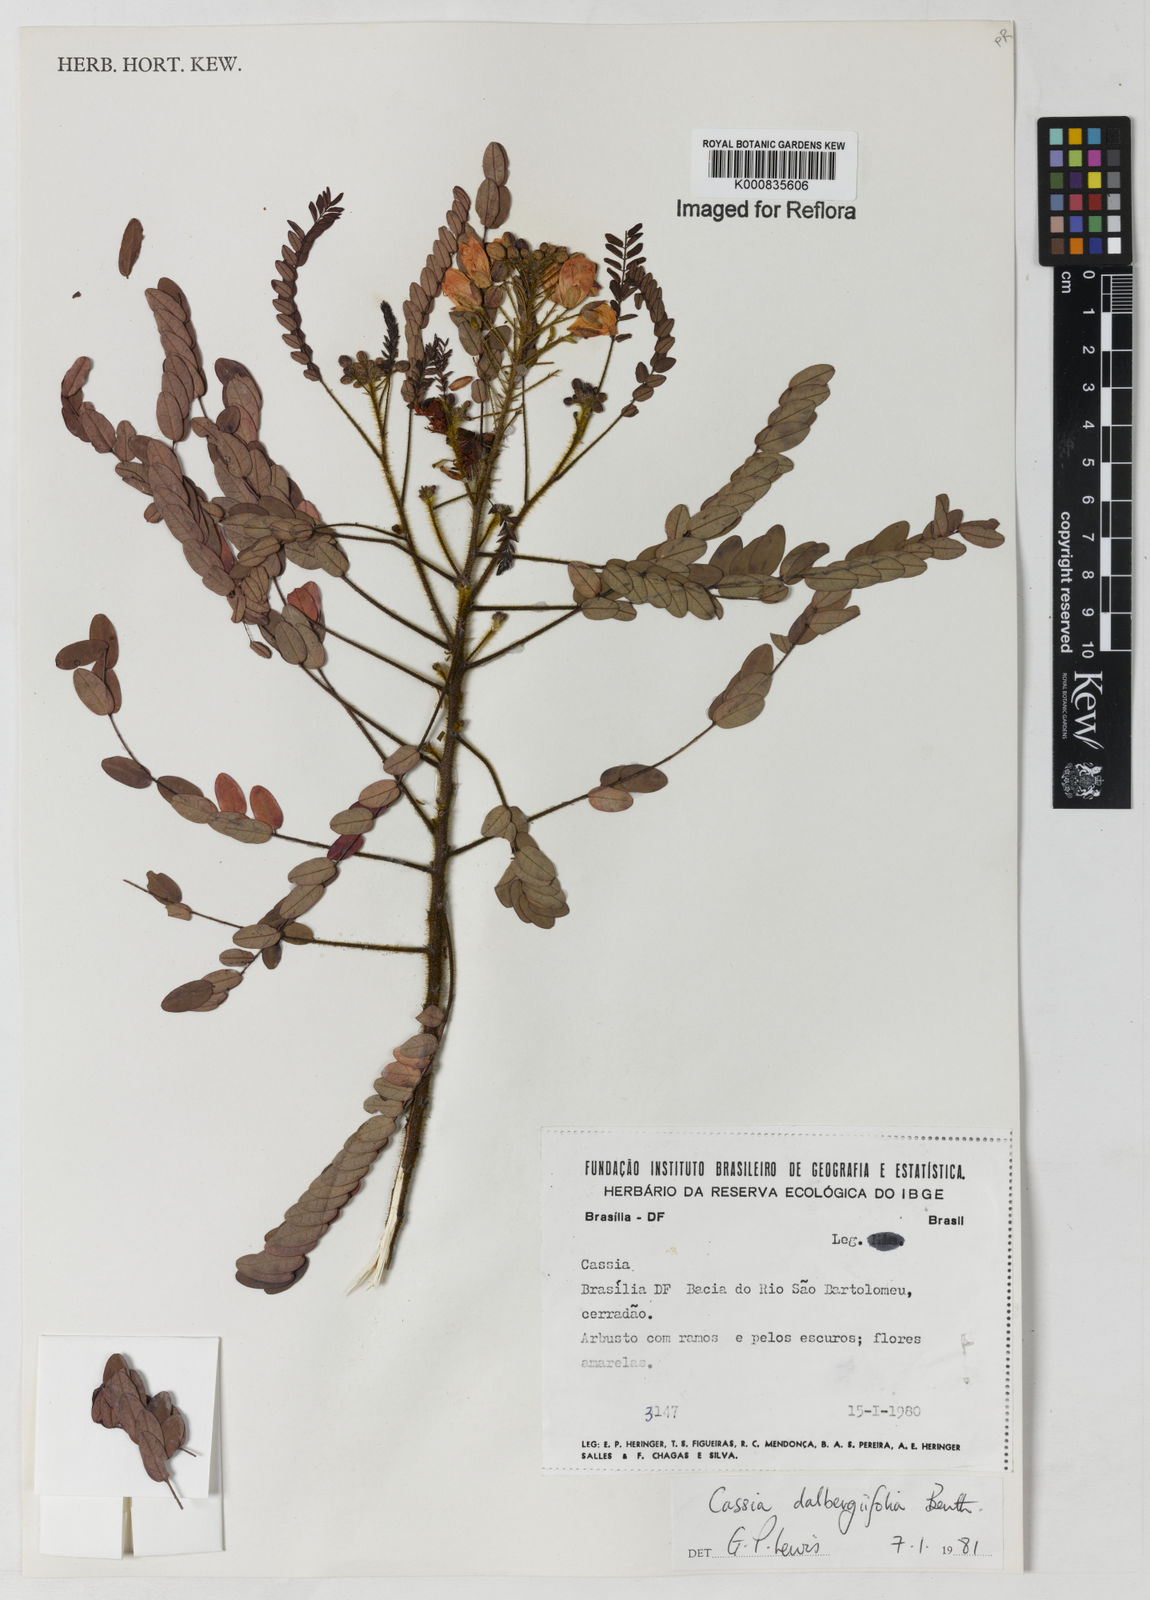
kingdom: Plantae
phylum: Tracheophyta
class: Magnoliopsida
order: Fabales
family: Fabaceae
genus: Chamaecrista
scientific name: Chamaecrista dalbergiifolia
